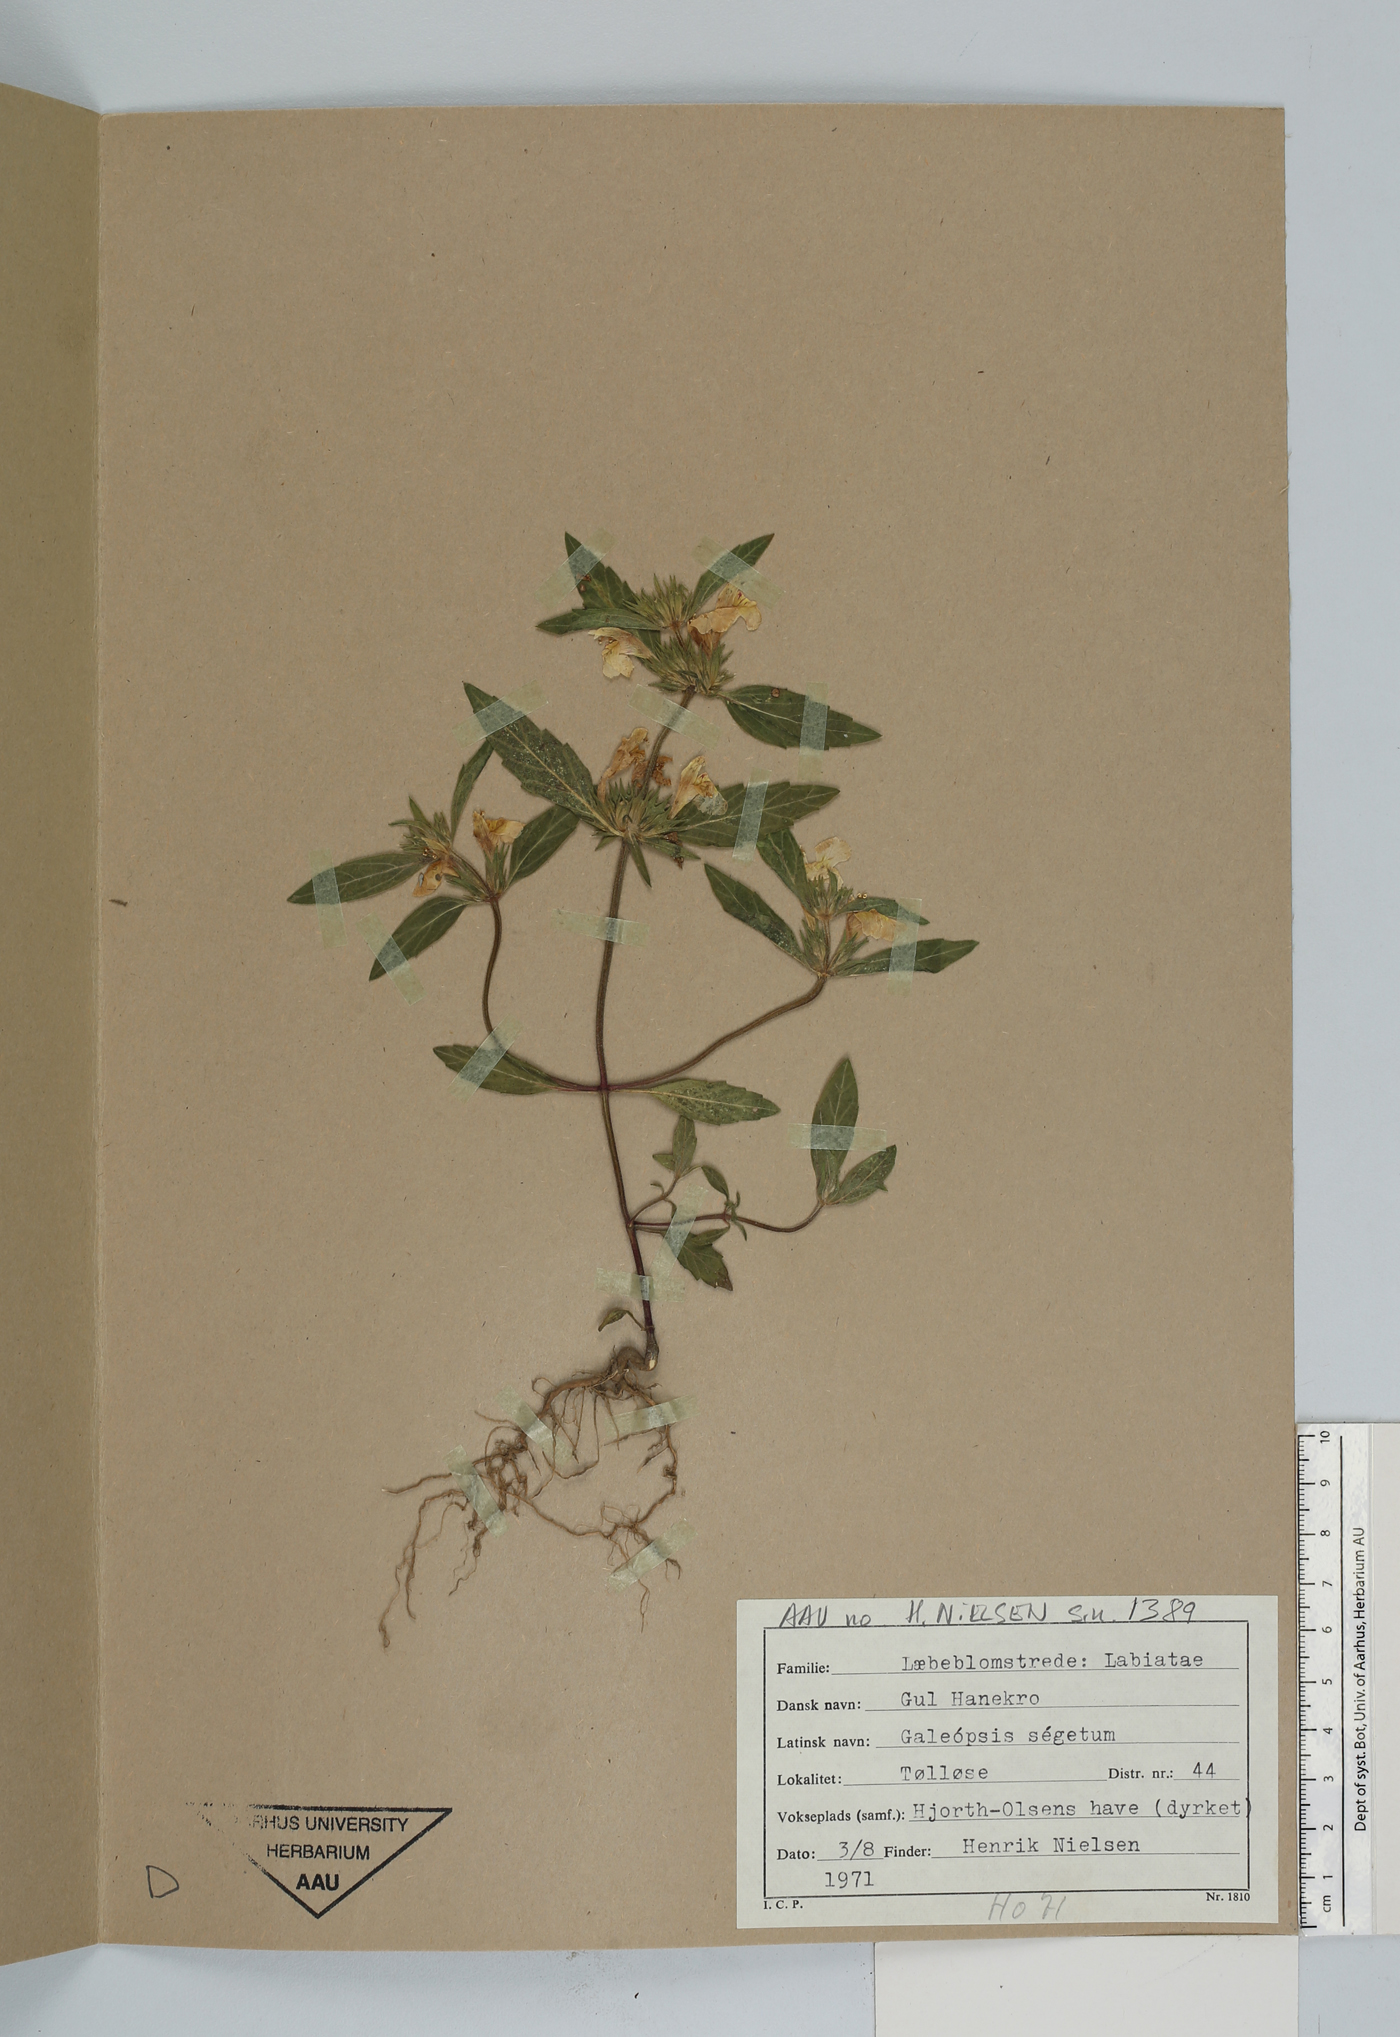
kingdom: Plantae
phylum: Tracheophyta
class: Magnoliopsida
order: Lamiales
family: Lamiaceae
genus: Galeopsis
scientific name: Galeopsis segetum
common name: Downy hemp-nettle
